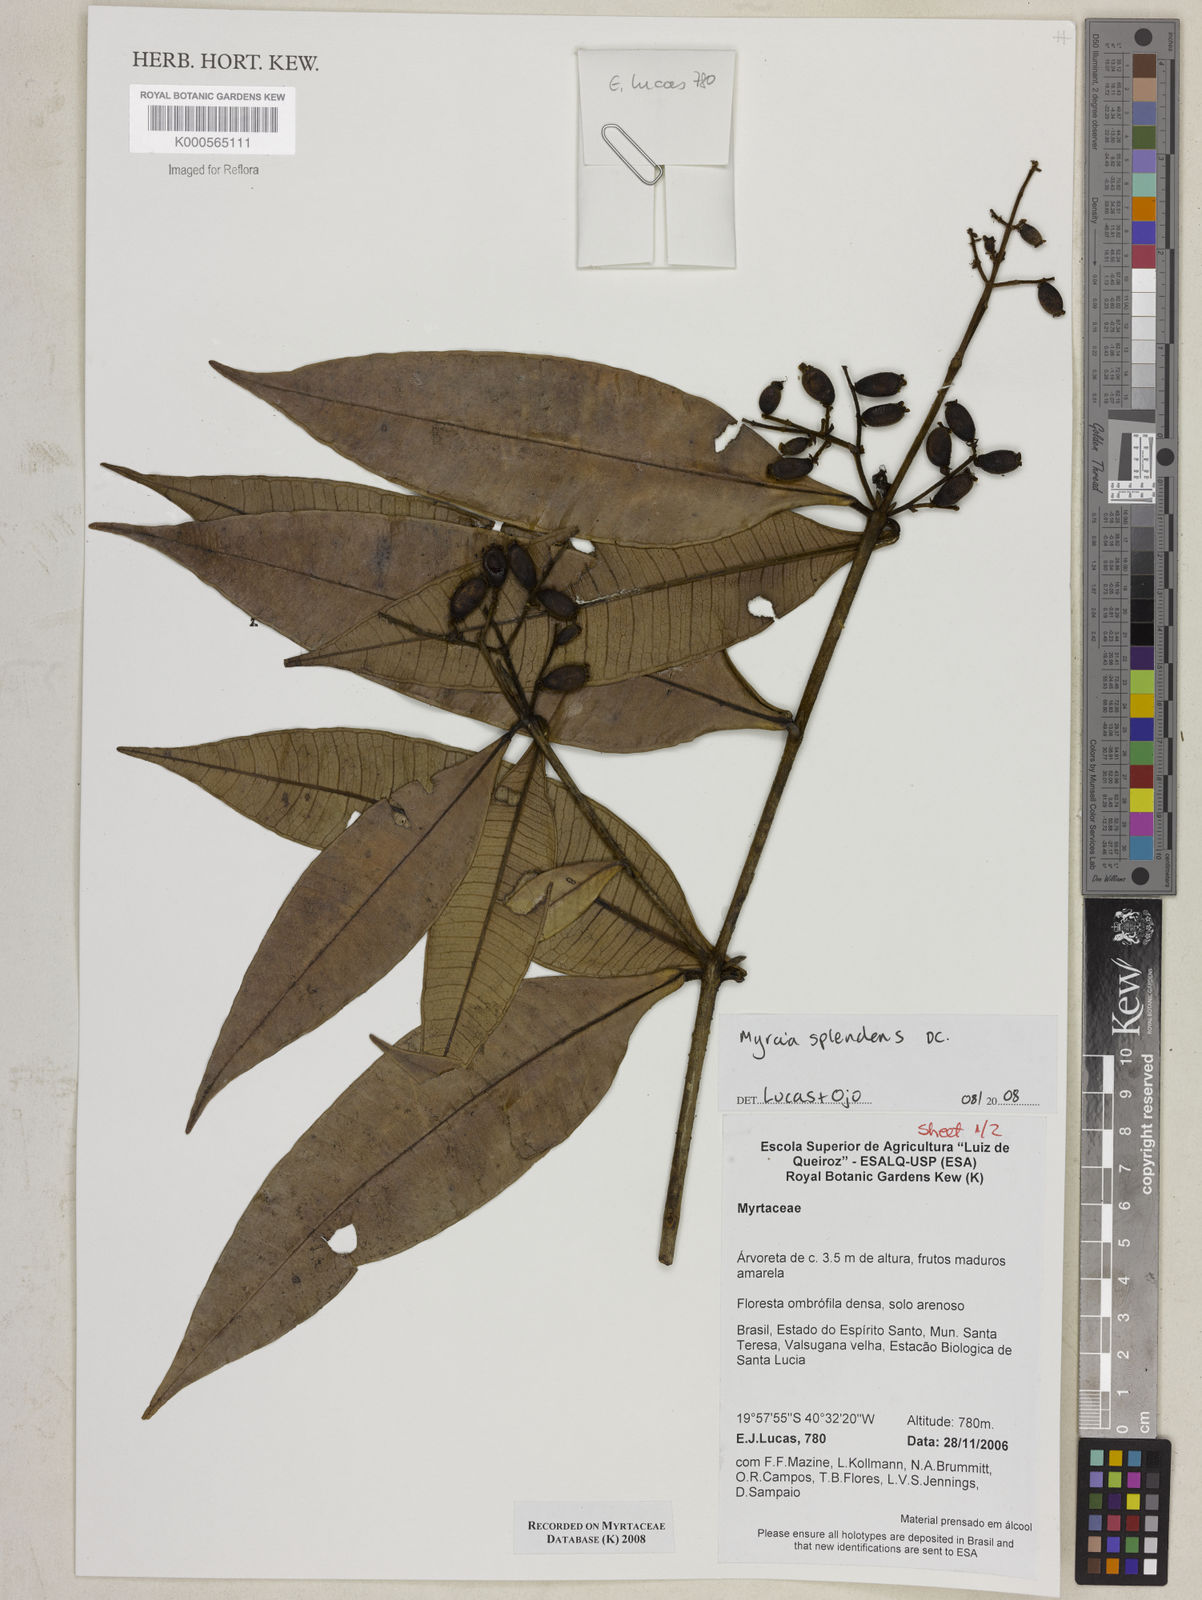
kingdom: Plantae
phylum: Tracheophyta
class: Magnoliopsida
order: Myrtales
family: Myrtaceae
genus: Myrcia
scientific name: Myrcia splendens
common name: Surinam cherry
